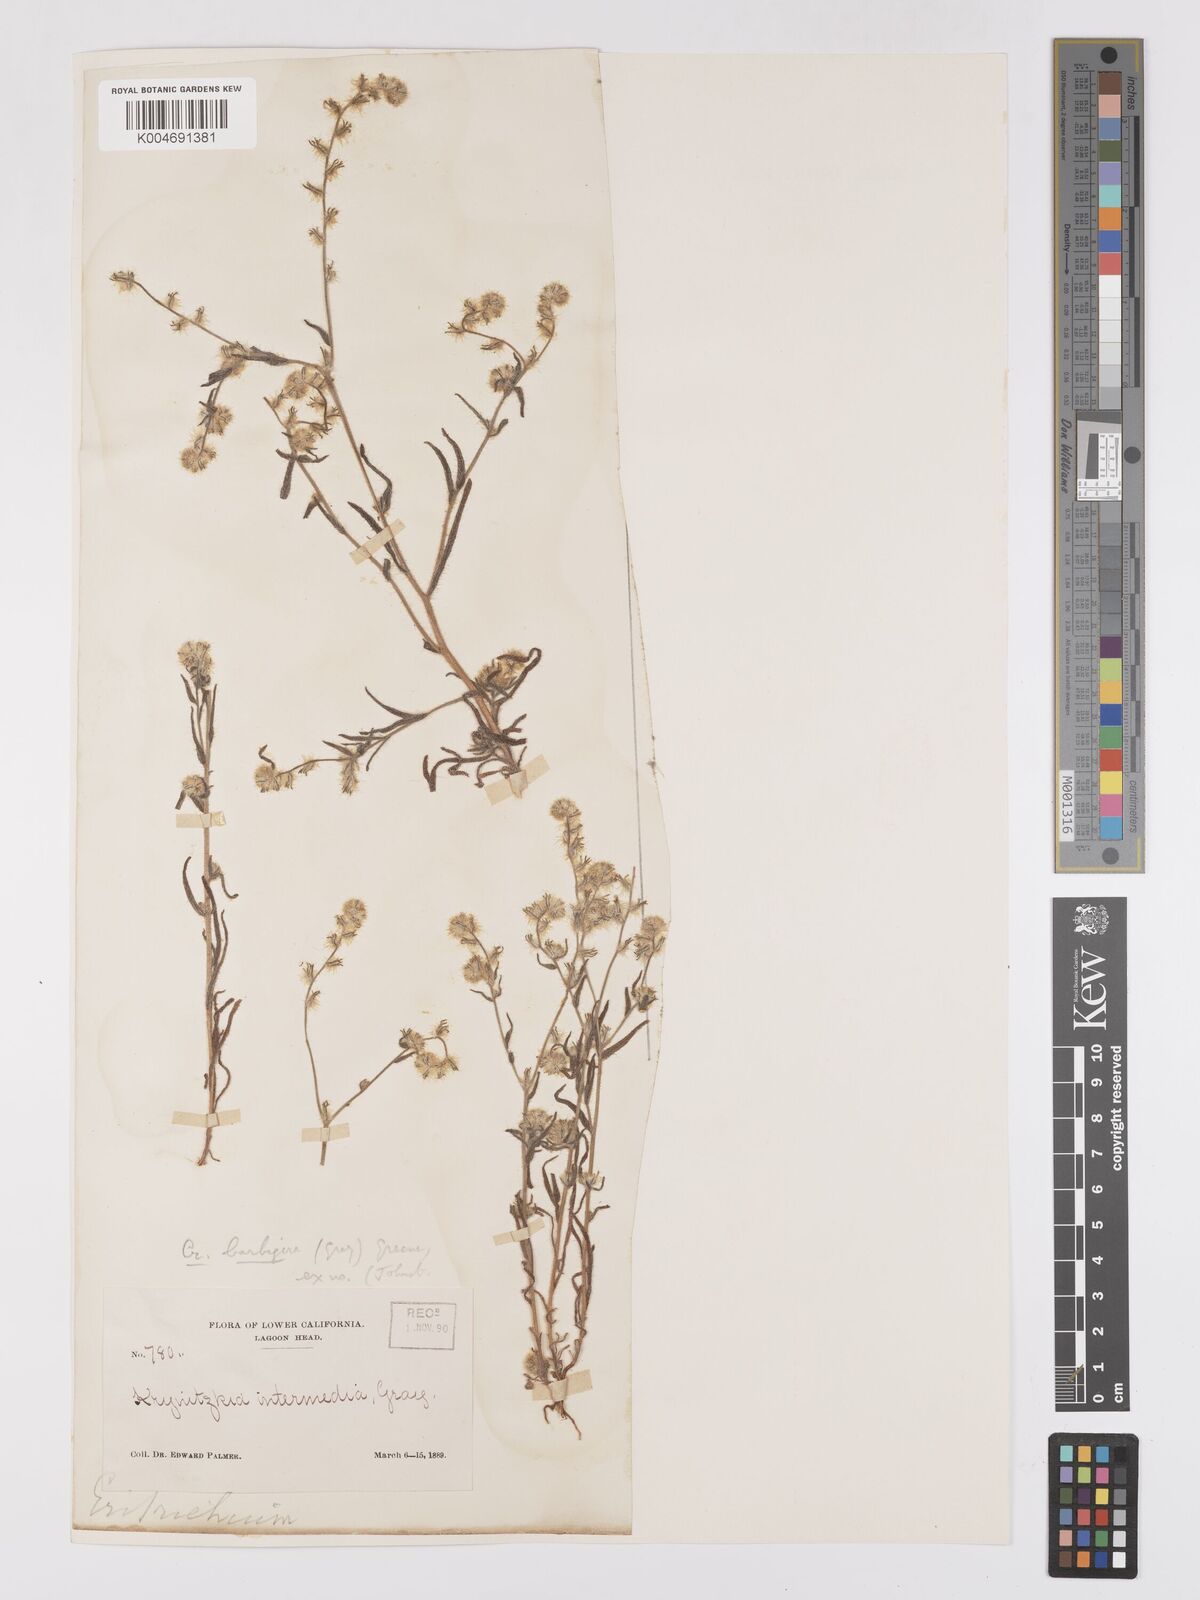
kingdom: Plantae
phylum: Tracheophyta
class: Magnoliopsida
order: Boraginales
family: Boraginaceae
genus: Cryptantha
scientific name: Cryptantha barbigera
